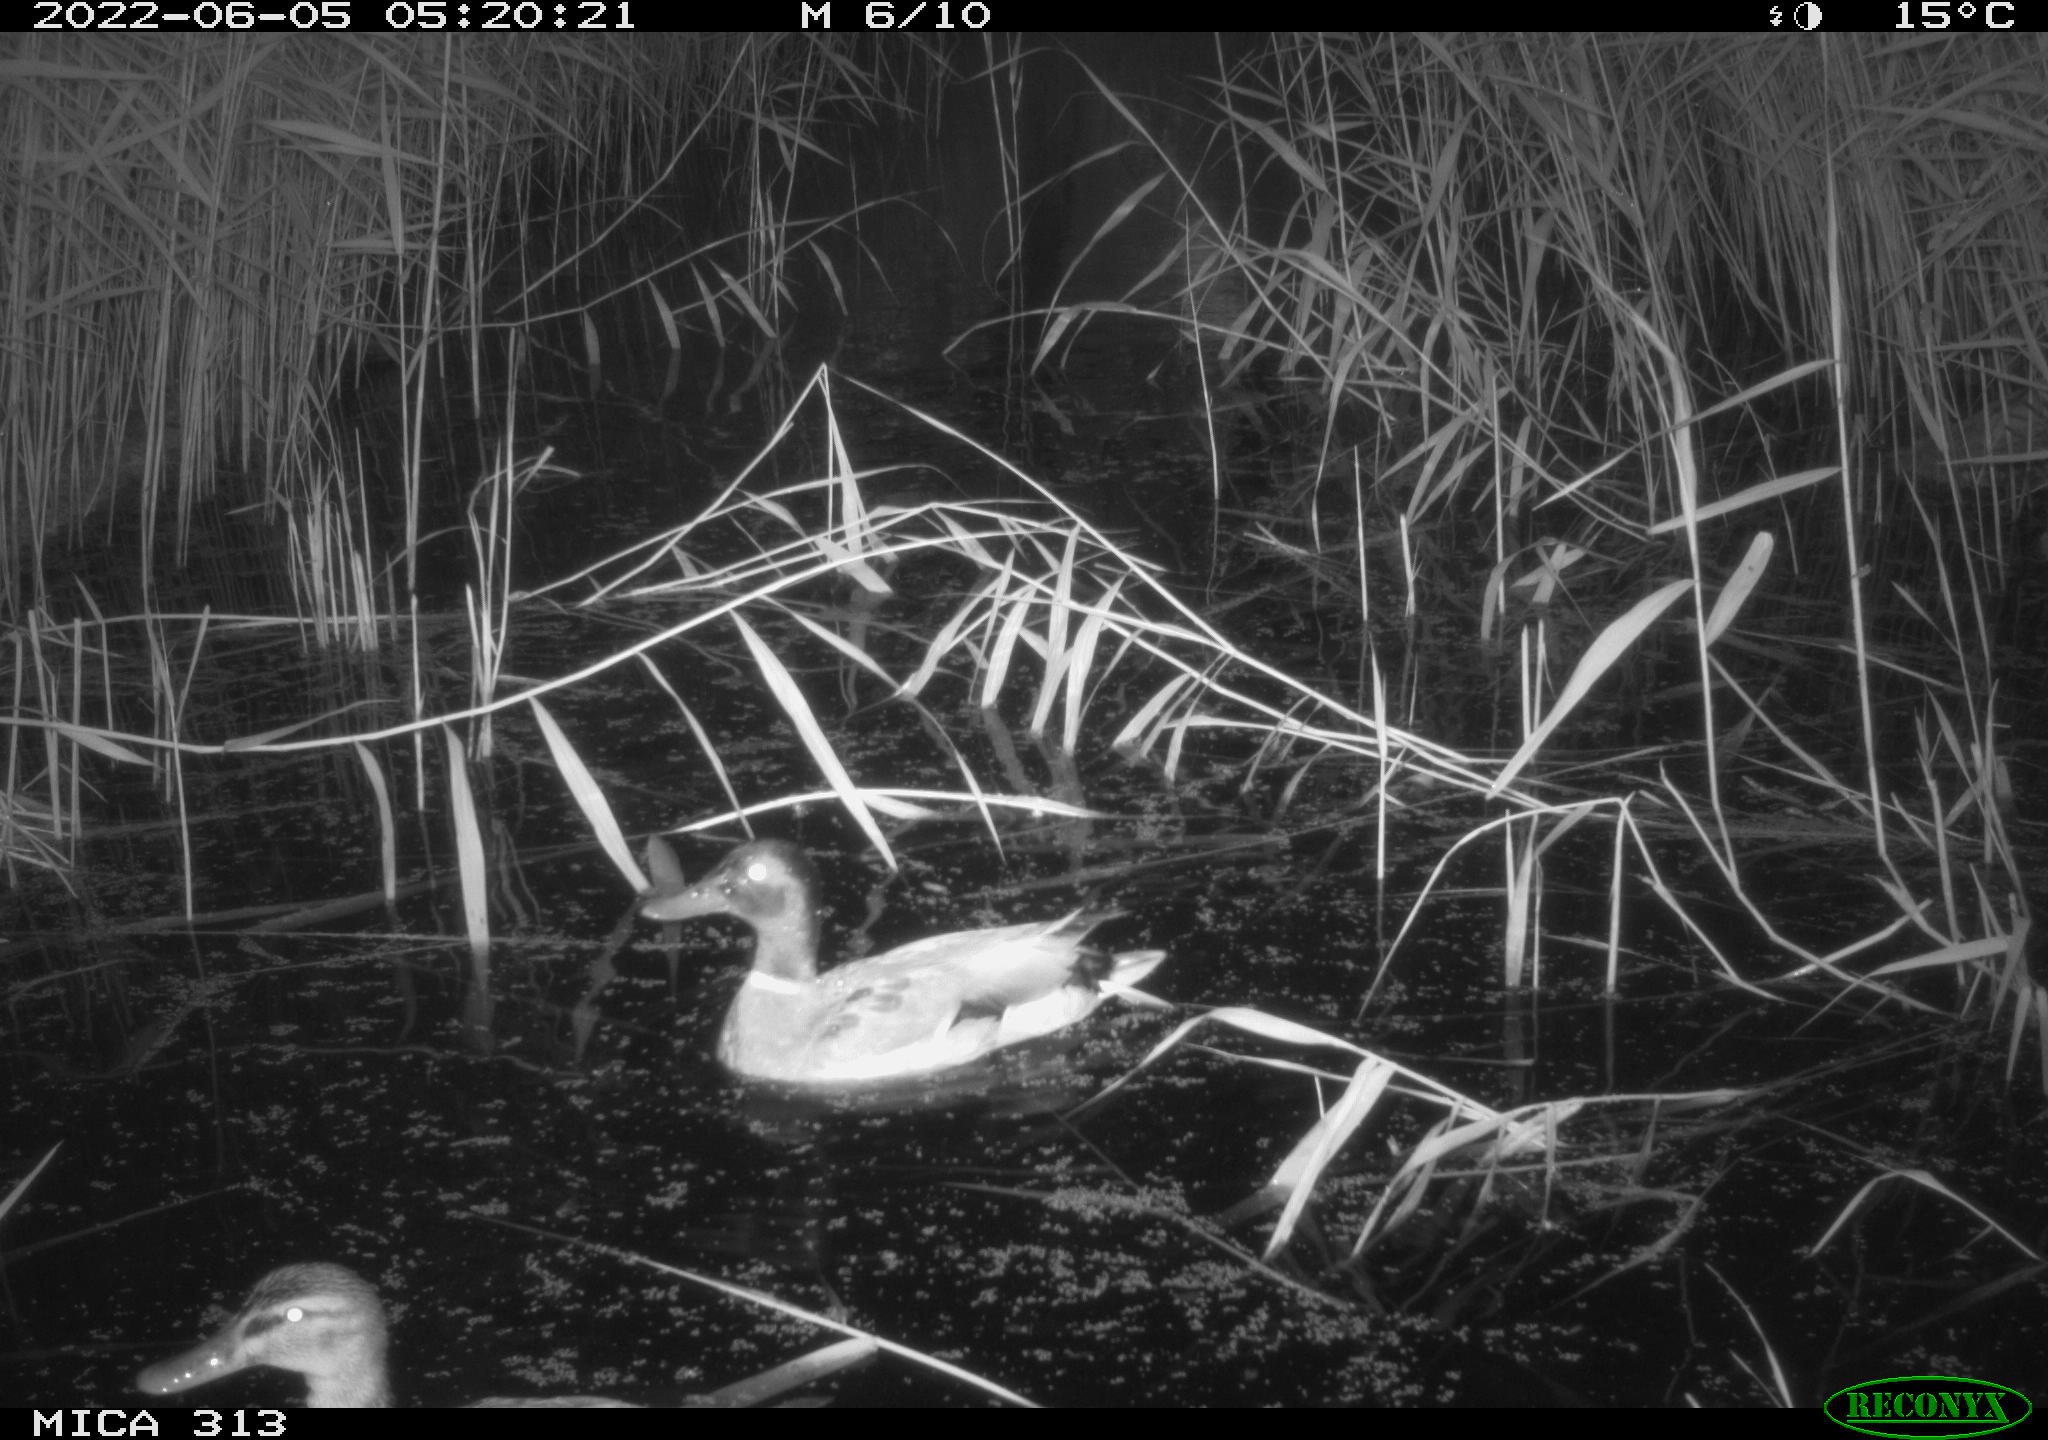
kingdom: Animalia
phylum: Chordata
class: Aves
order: Anseriformes
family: Anatidae
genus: Anas
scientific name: Anas platyrhynchos
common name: Mallard
